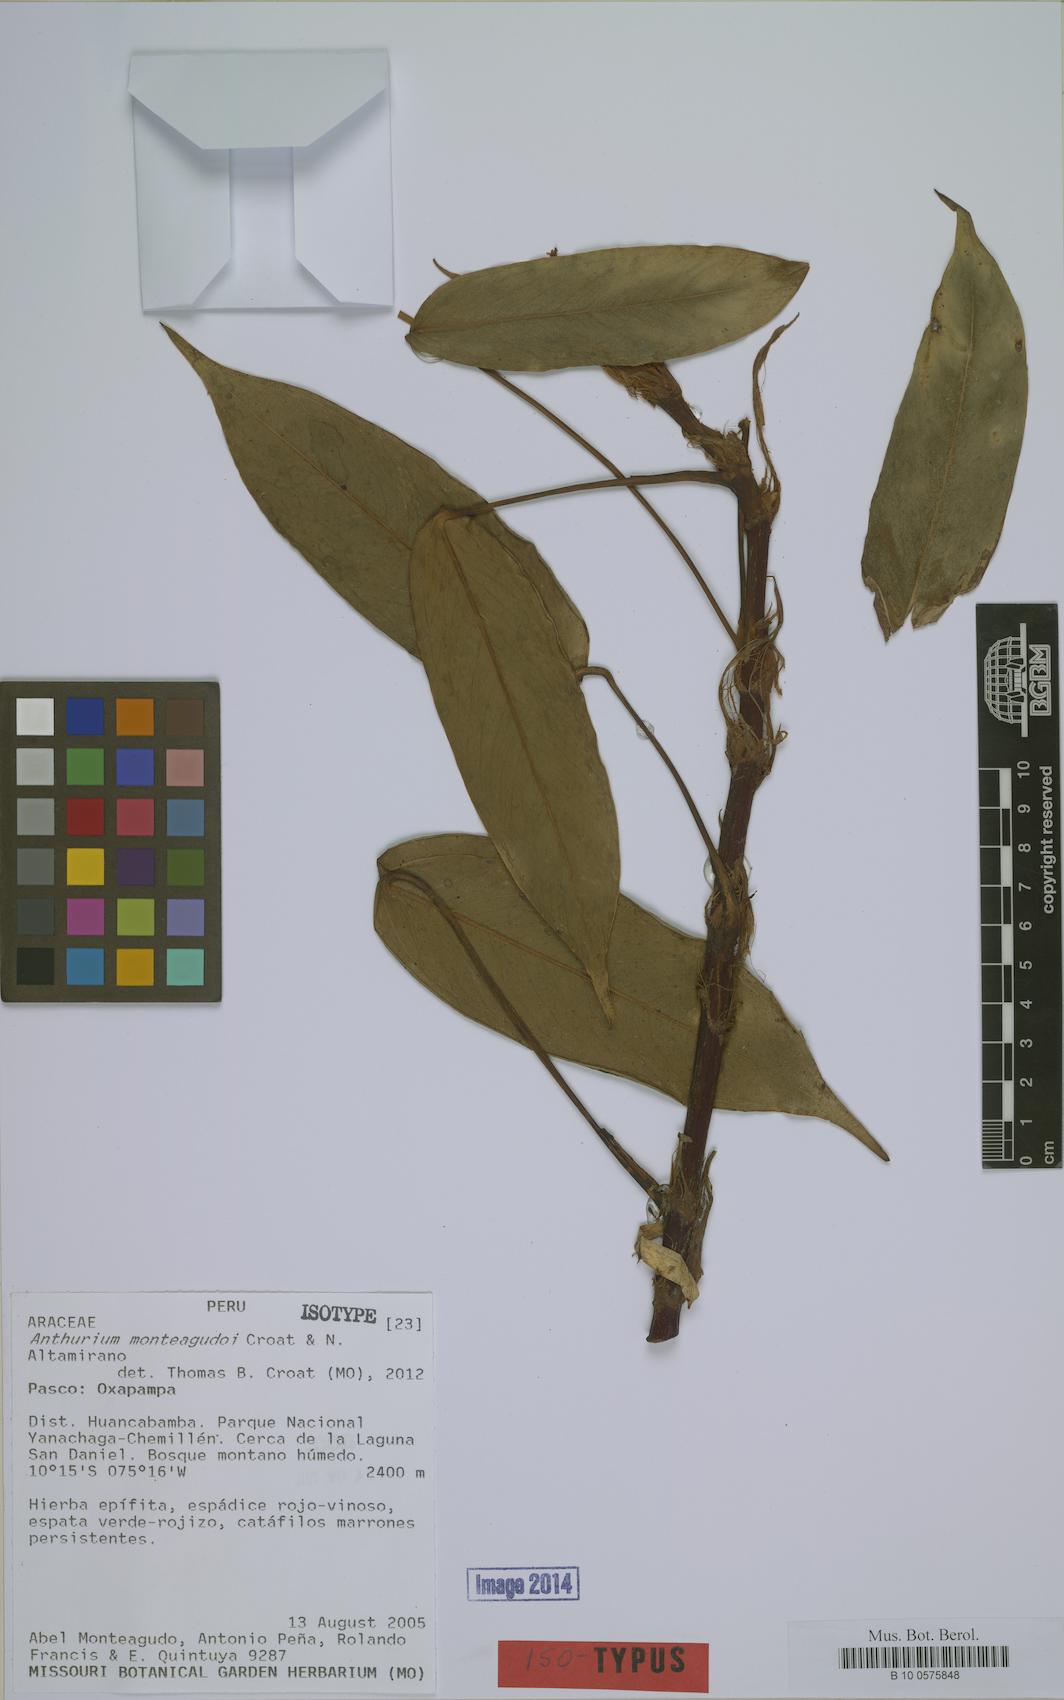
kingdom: Plantae
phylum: Tracheophyta
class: Liliopsida
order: Alismatales
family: Araceae
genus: Anthurium
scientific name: Anthurium monteagudoi
